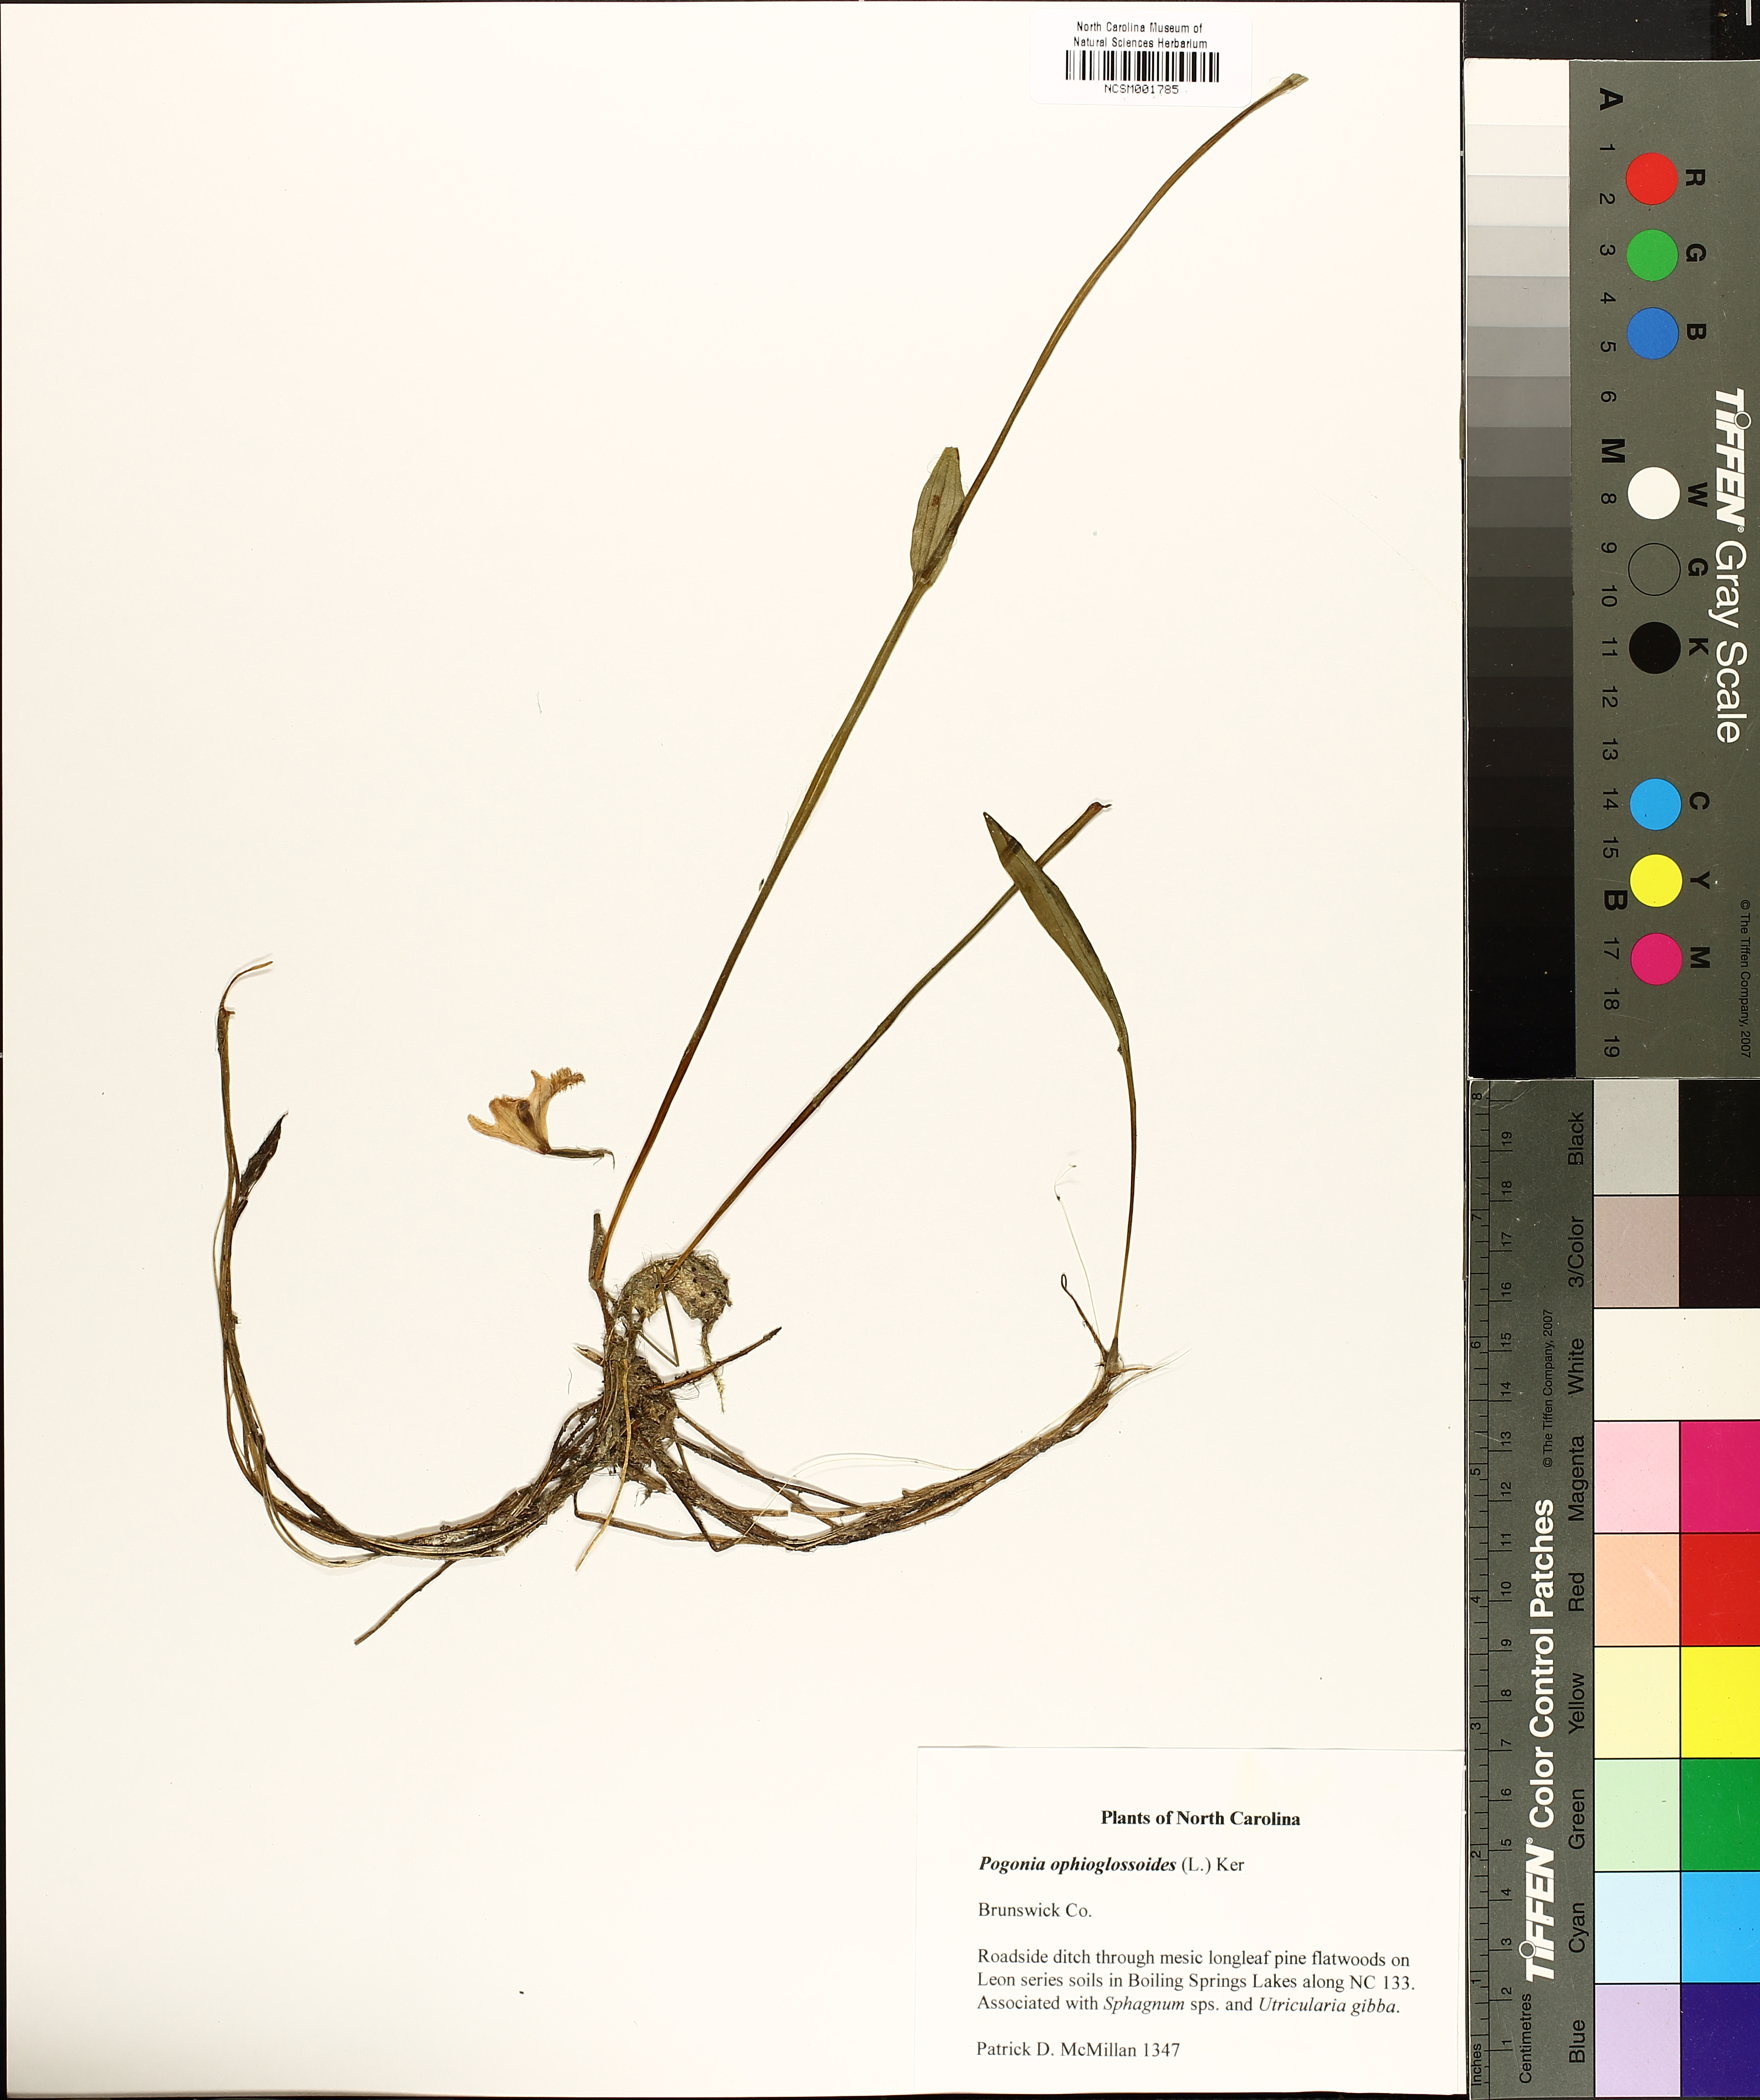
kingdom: Plantae
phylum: Tracheophyta
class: Liliopsida
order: Asparagales
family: Orchidaceae
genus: Pogonia
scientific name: Pogonia ophioglossoides
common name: Rose pogonia
